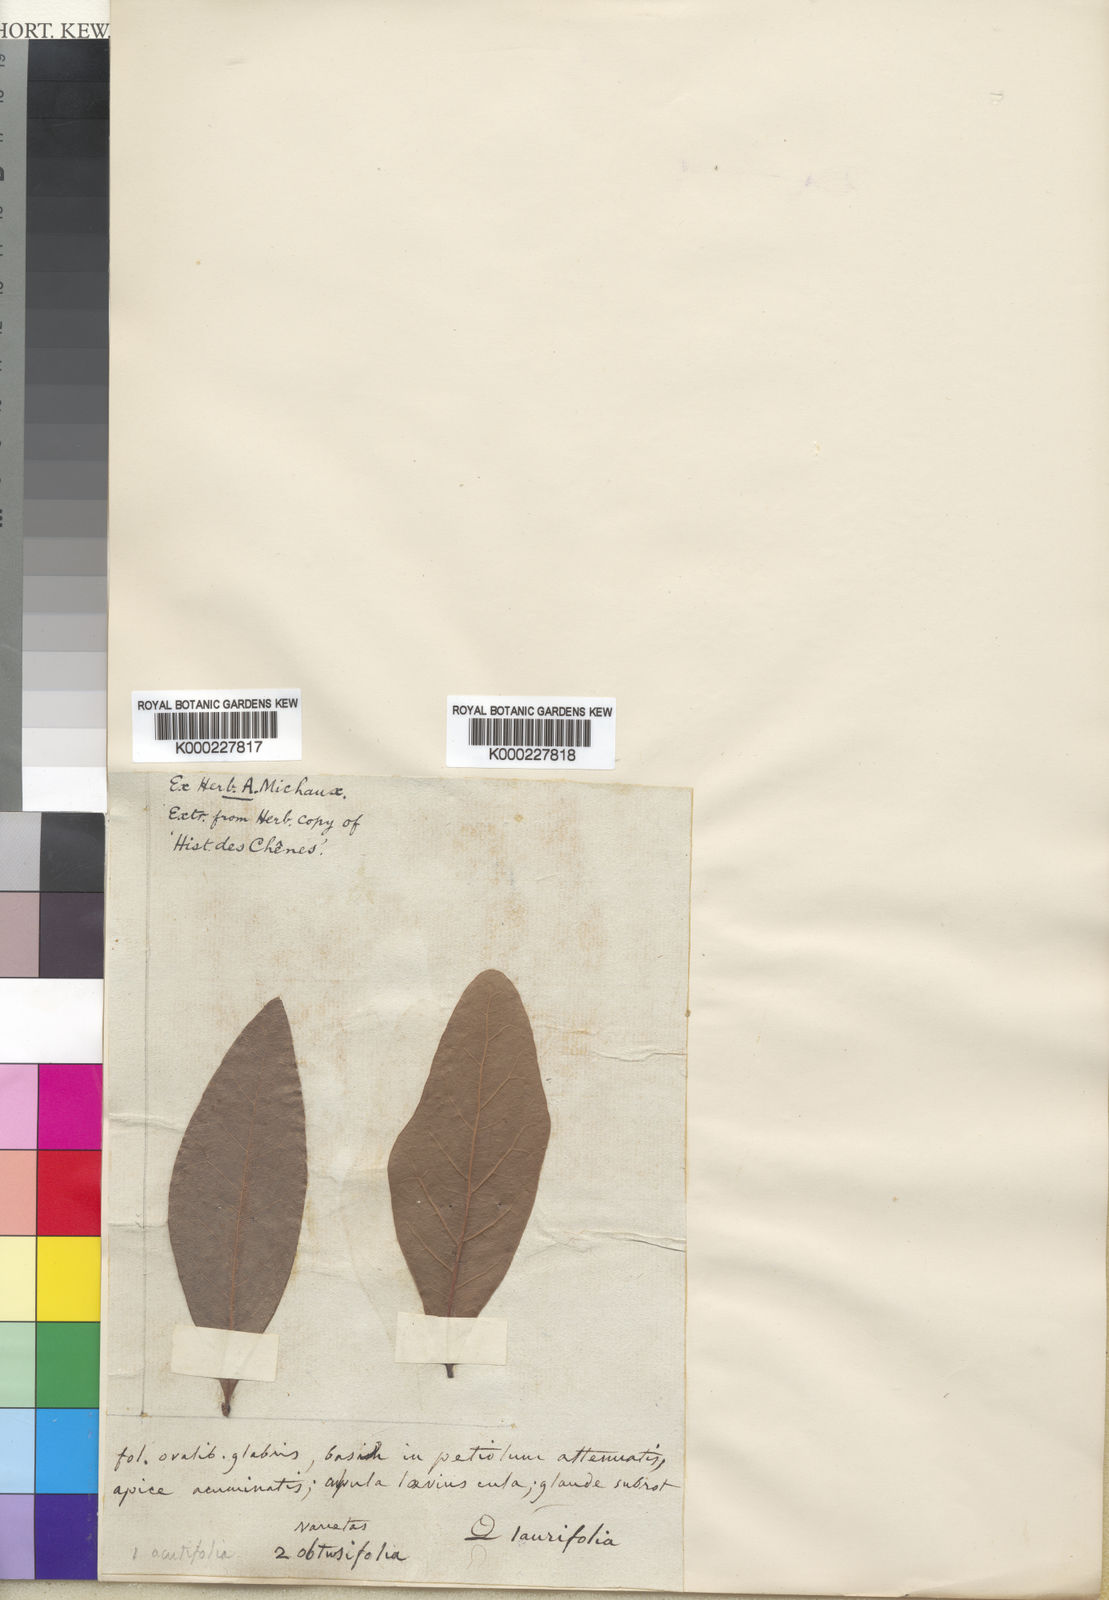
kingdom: Plantae
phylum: Tracheophyta
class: Magnoliopsida
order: Fagales
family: Fagaceae
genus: Quercus
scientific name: Quercus laurifolia
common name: Swamp laurel oak
